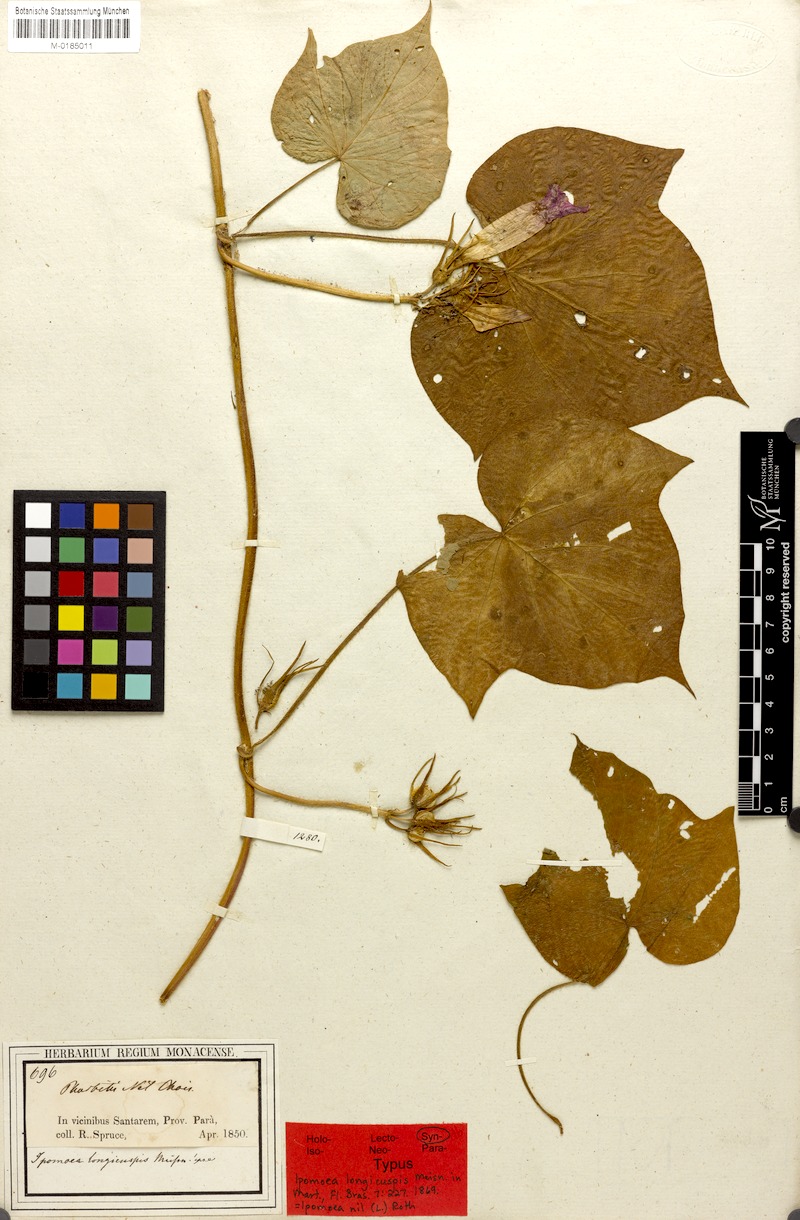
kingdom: Plantae
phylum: Tracheophyta
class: Magnoliopsida
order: Solanales
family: Convolvulaceae
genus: Ipomoea
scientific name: Ipomoea nil
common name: Japanese morning-glory
